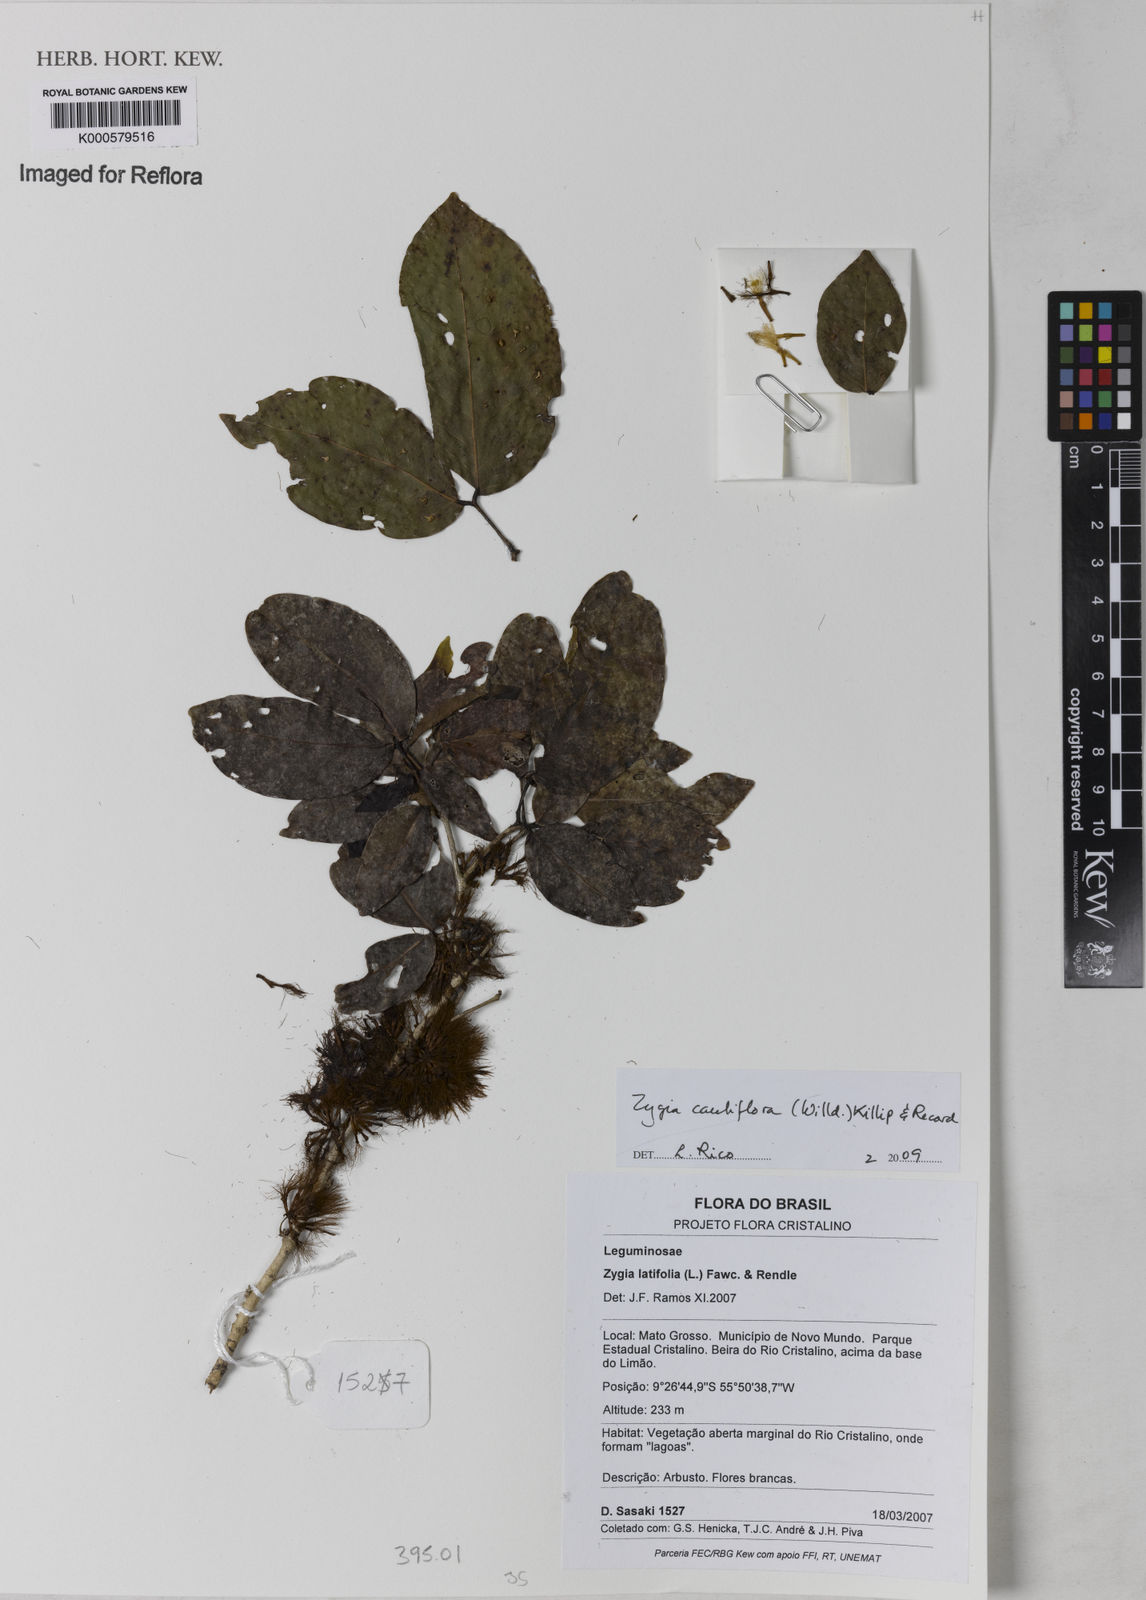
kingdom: Plantae
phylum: Tracheophyta
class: Magnoliopsida
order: Fabales
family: Fabaceae
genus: Zygia
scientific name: Zygia cauliflora
